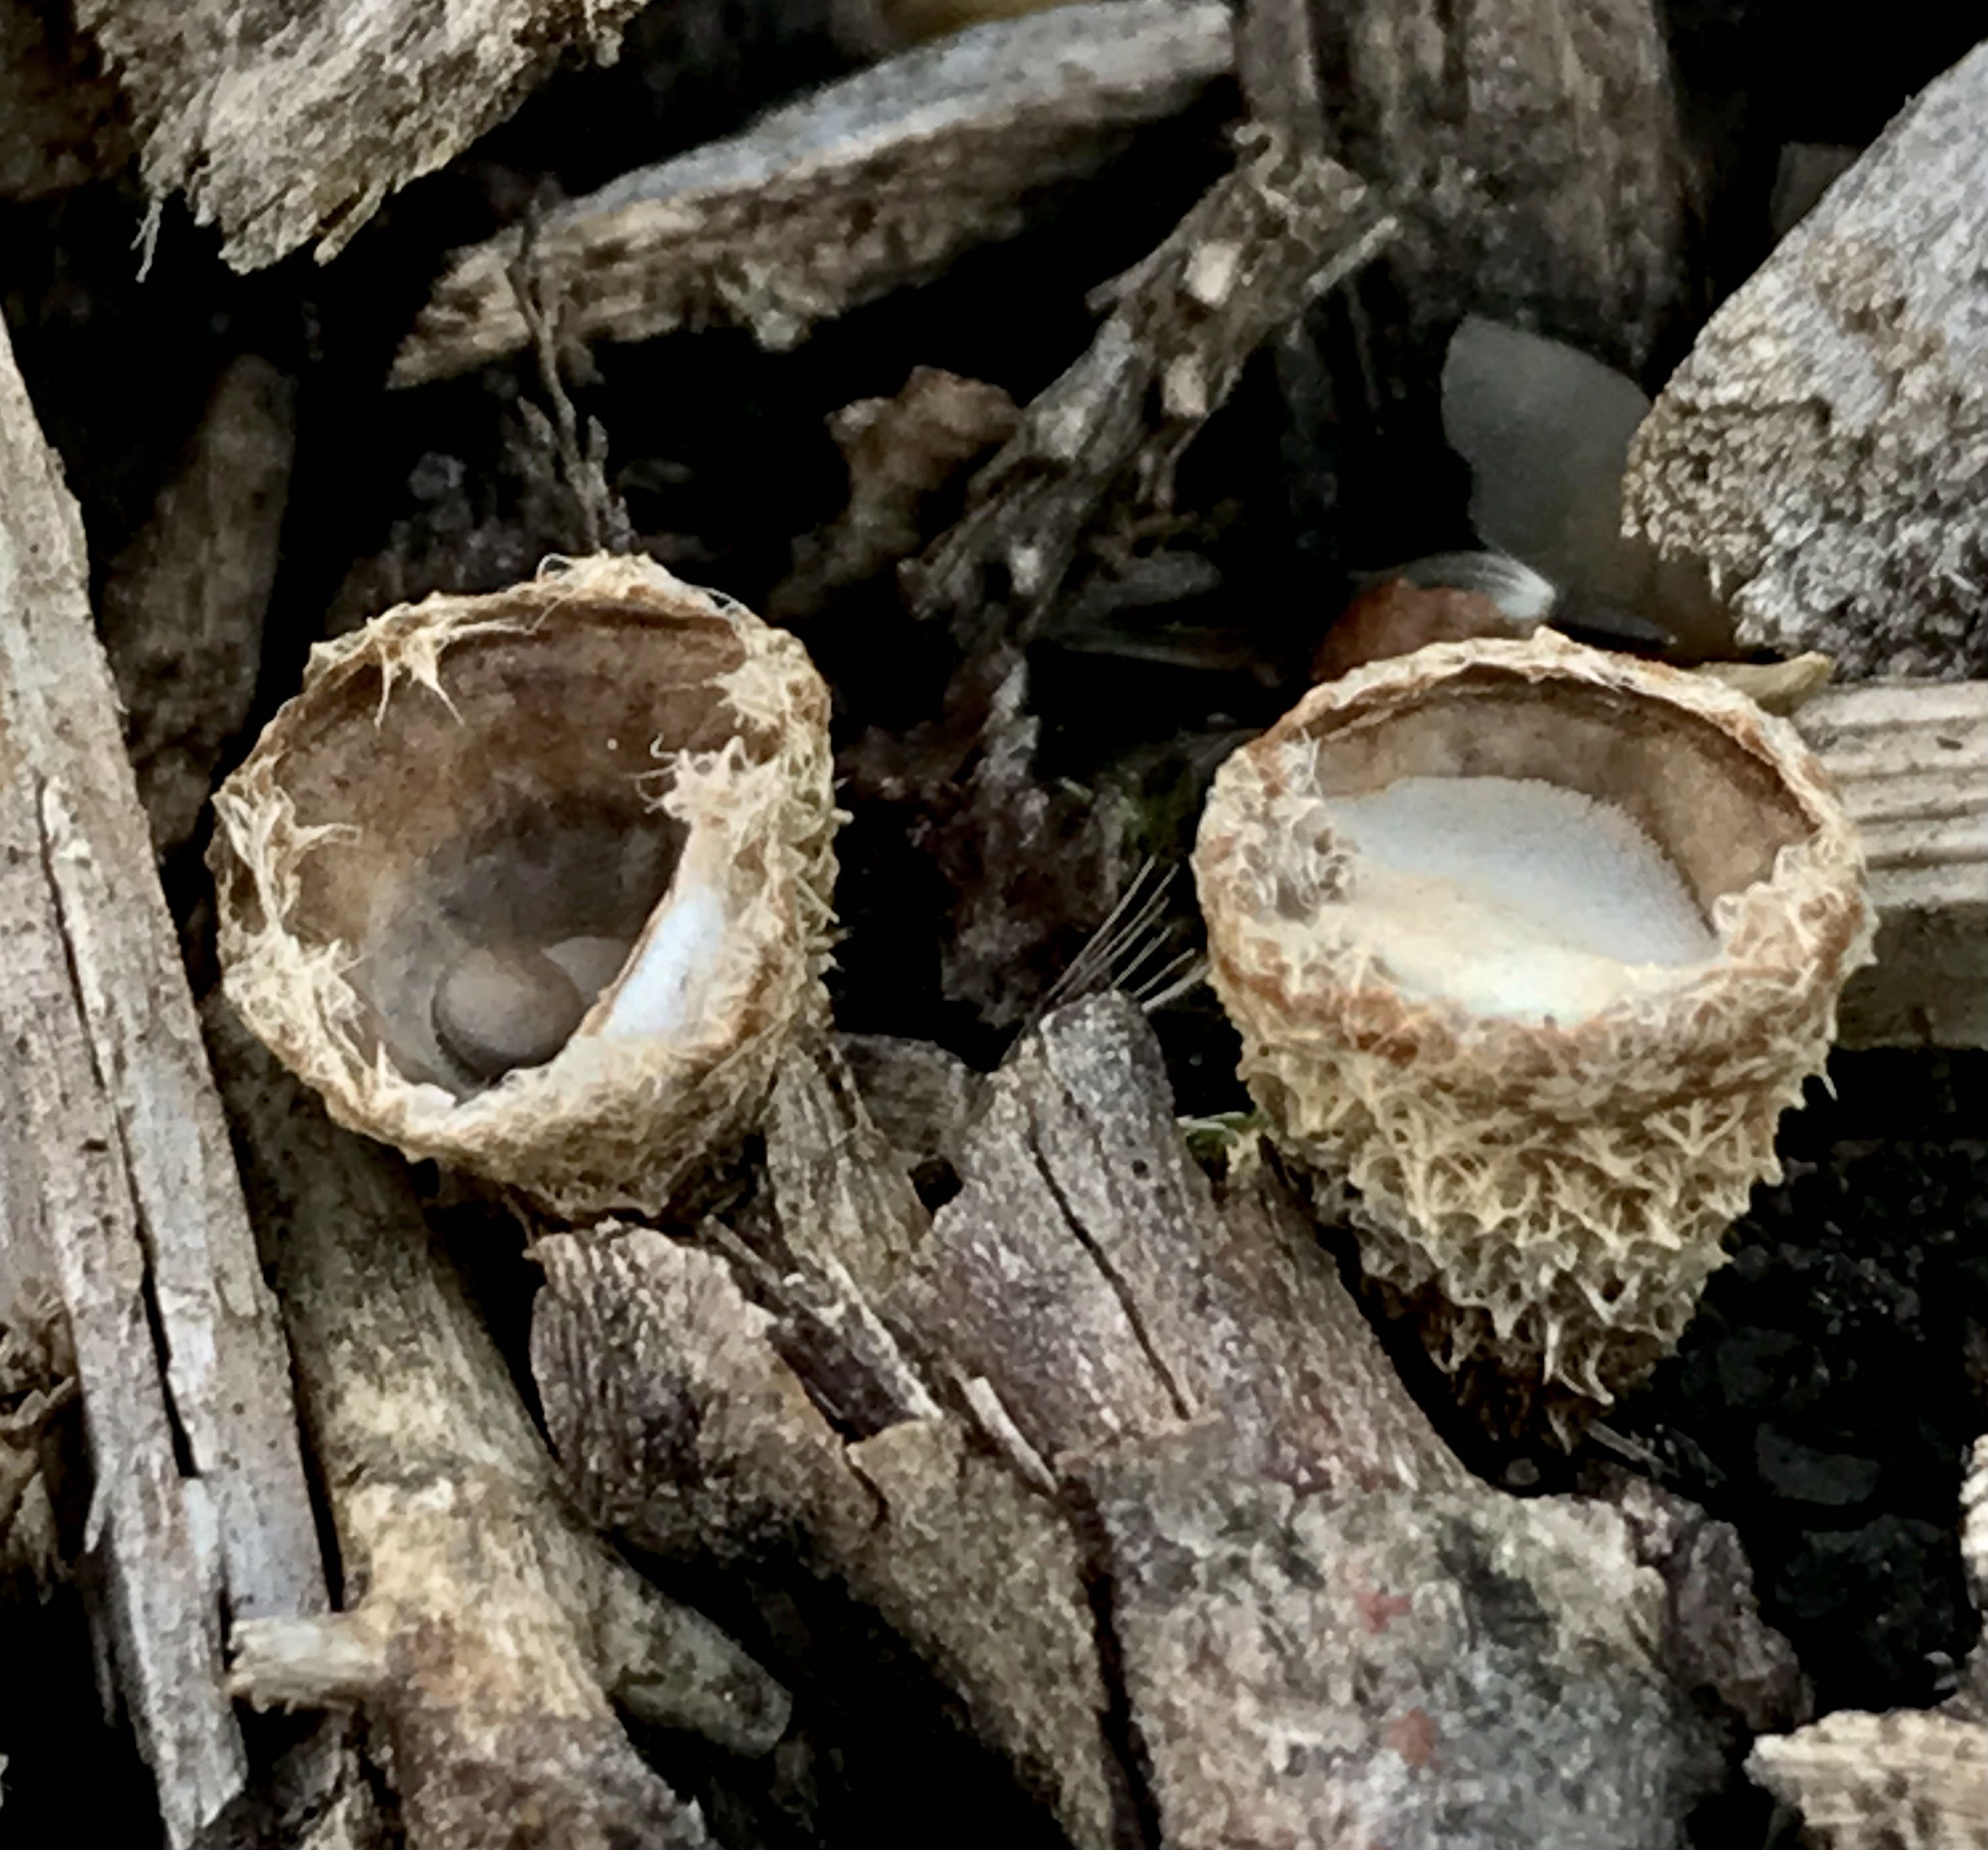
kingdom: Fungi
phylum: Basidiomycota
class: Agaricomycetes
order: Agaricales
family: Nidulariaceae
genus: Crucibulum
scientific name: Crucibulum crucibuliforme
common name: krukkesvamp
